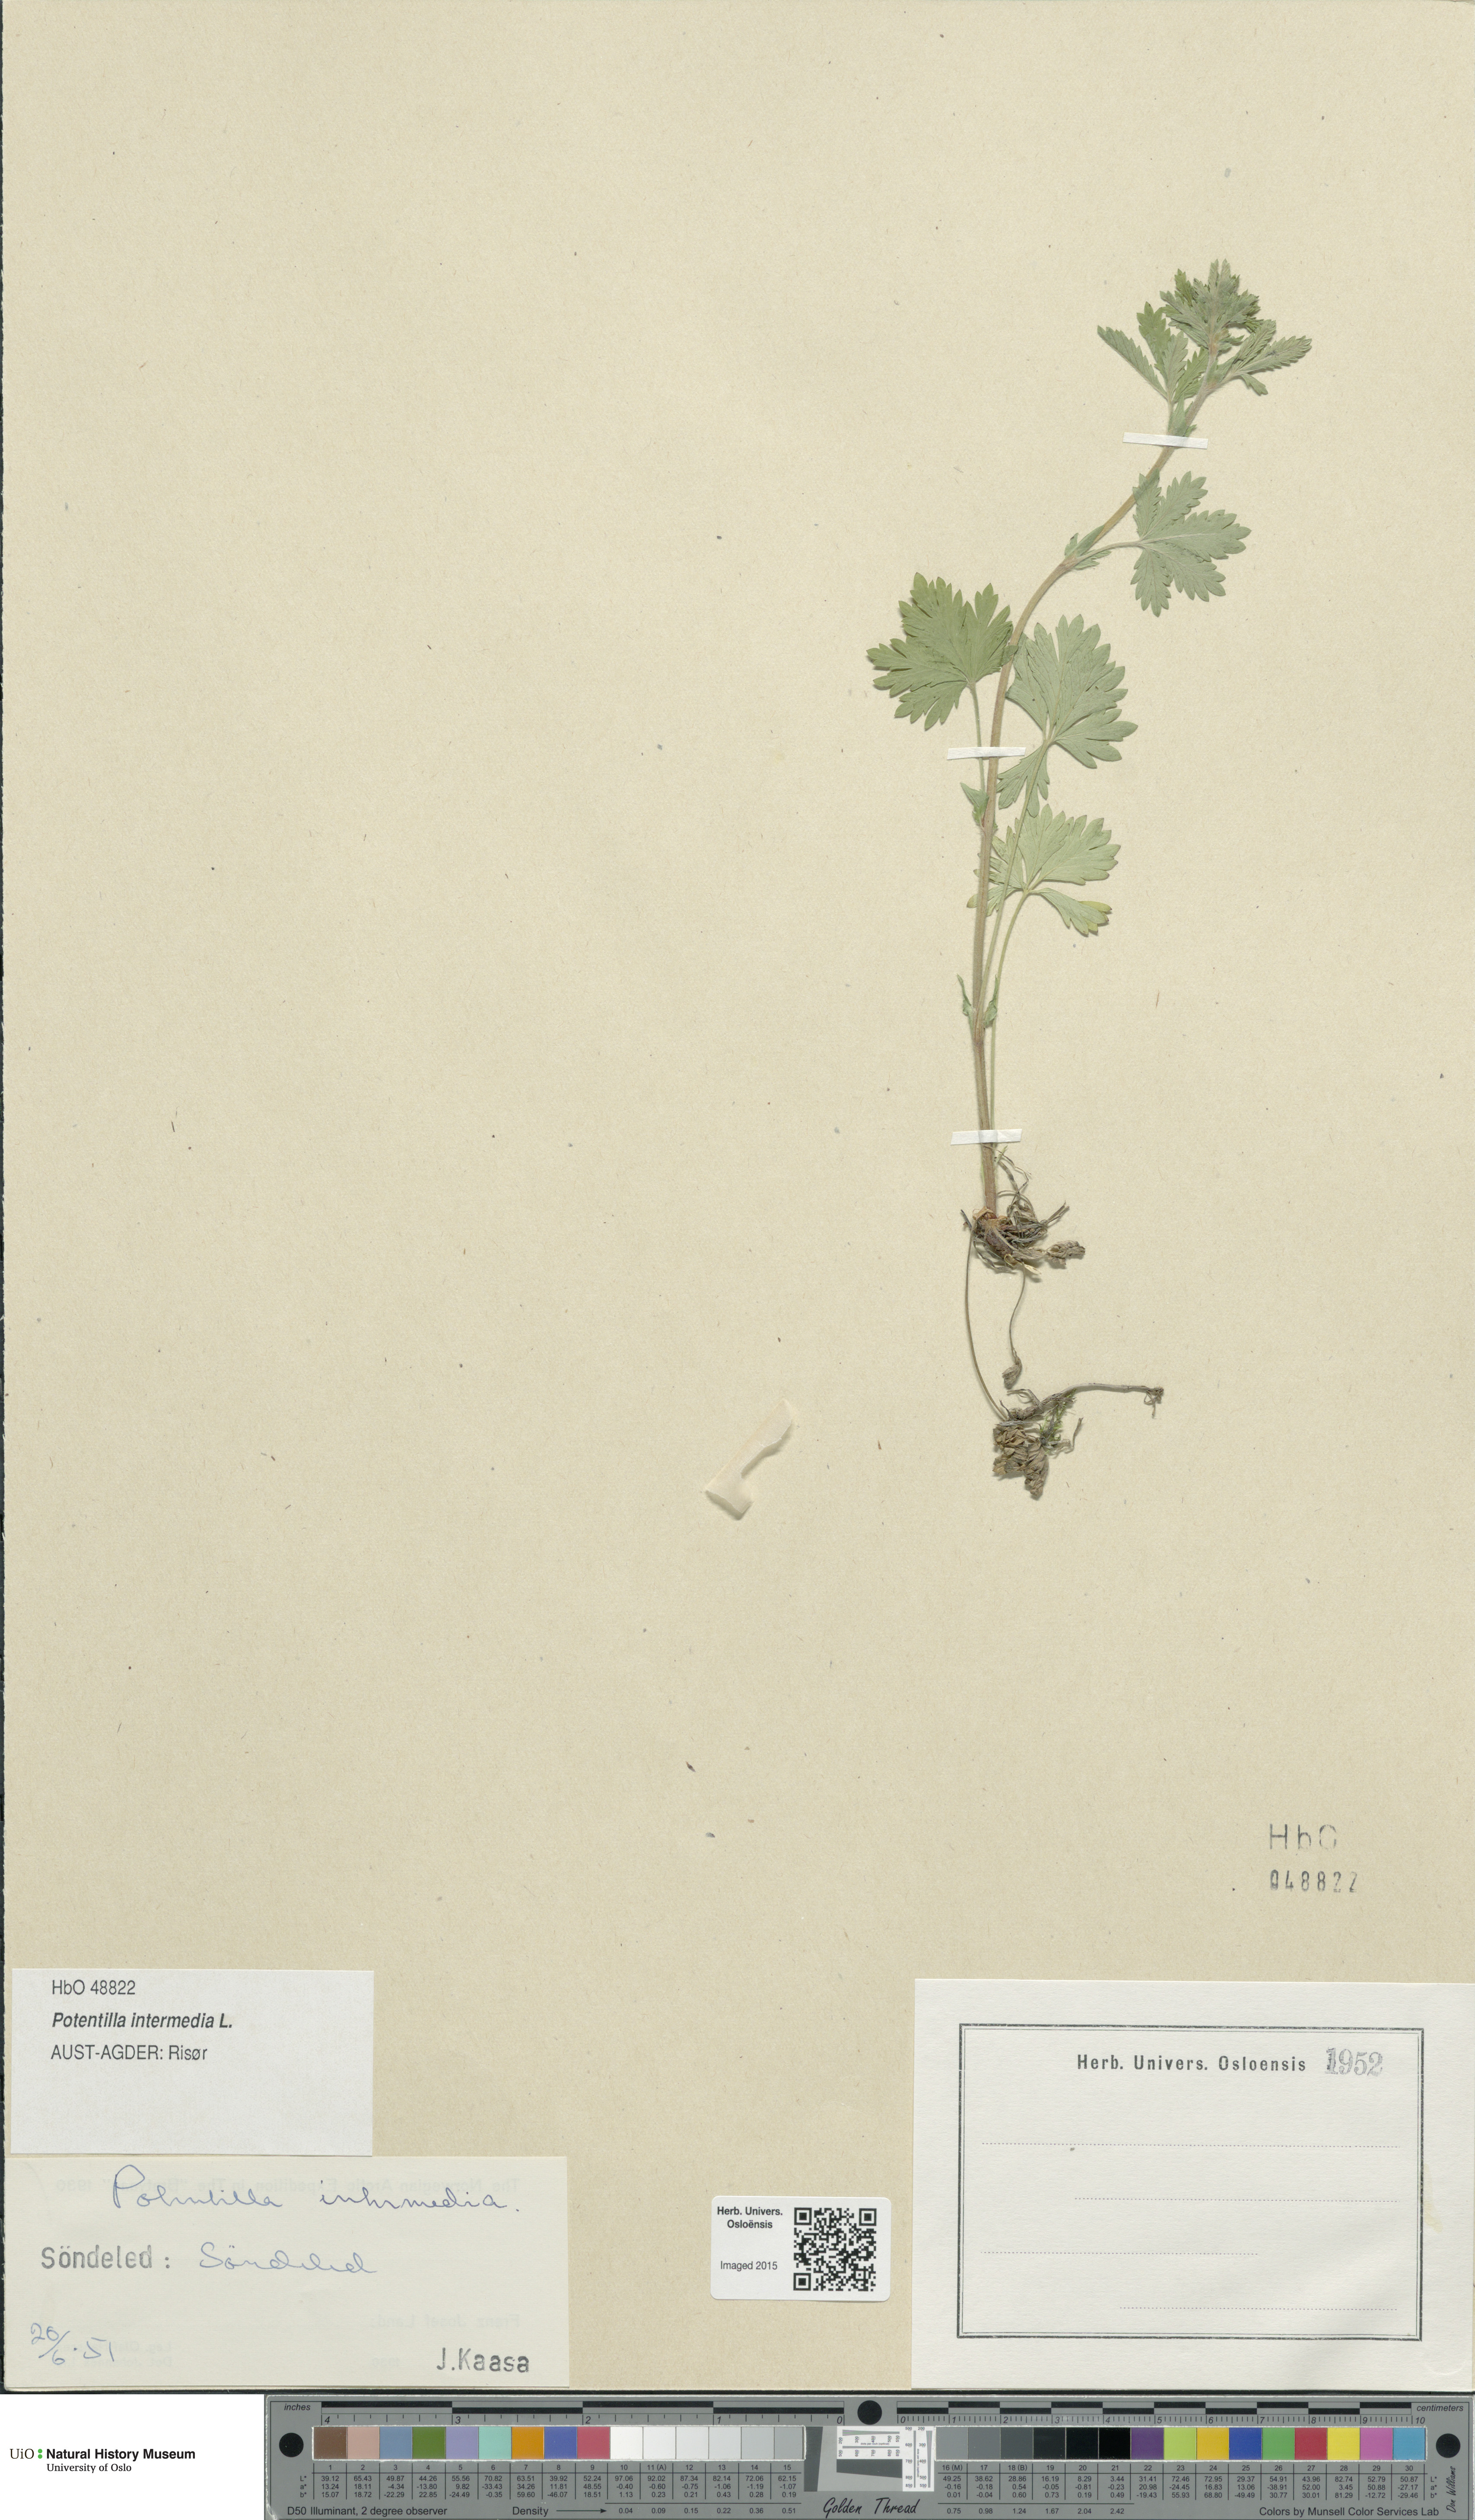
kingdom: Plantae
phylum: Tracheophyta
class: Magnoliopsida
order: Rosales
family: Rosaceae
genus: Potentilla
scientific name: Potentilla intermedia
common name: Downy cinquefoil
